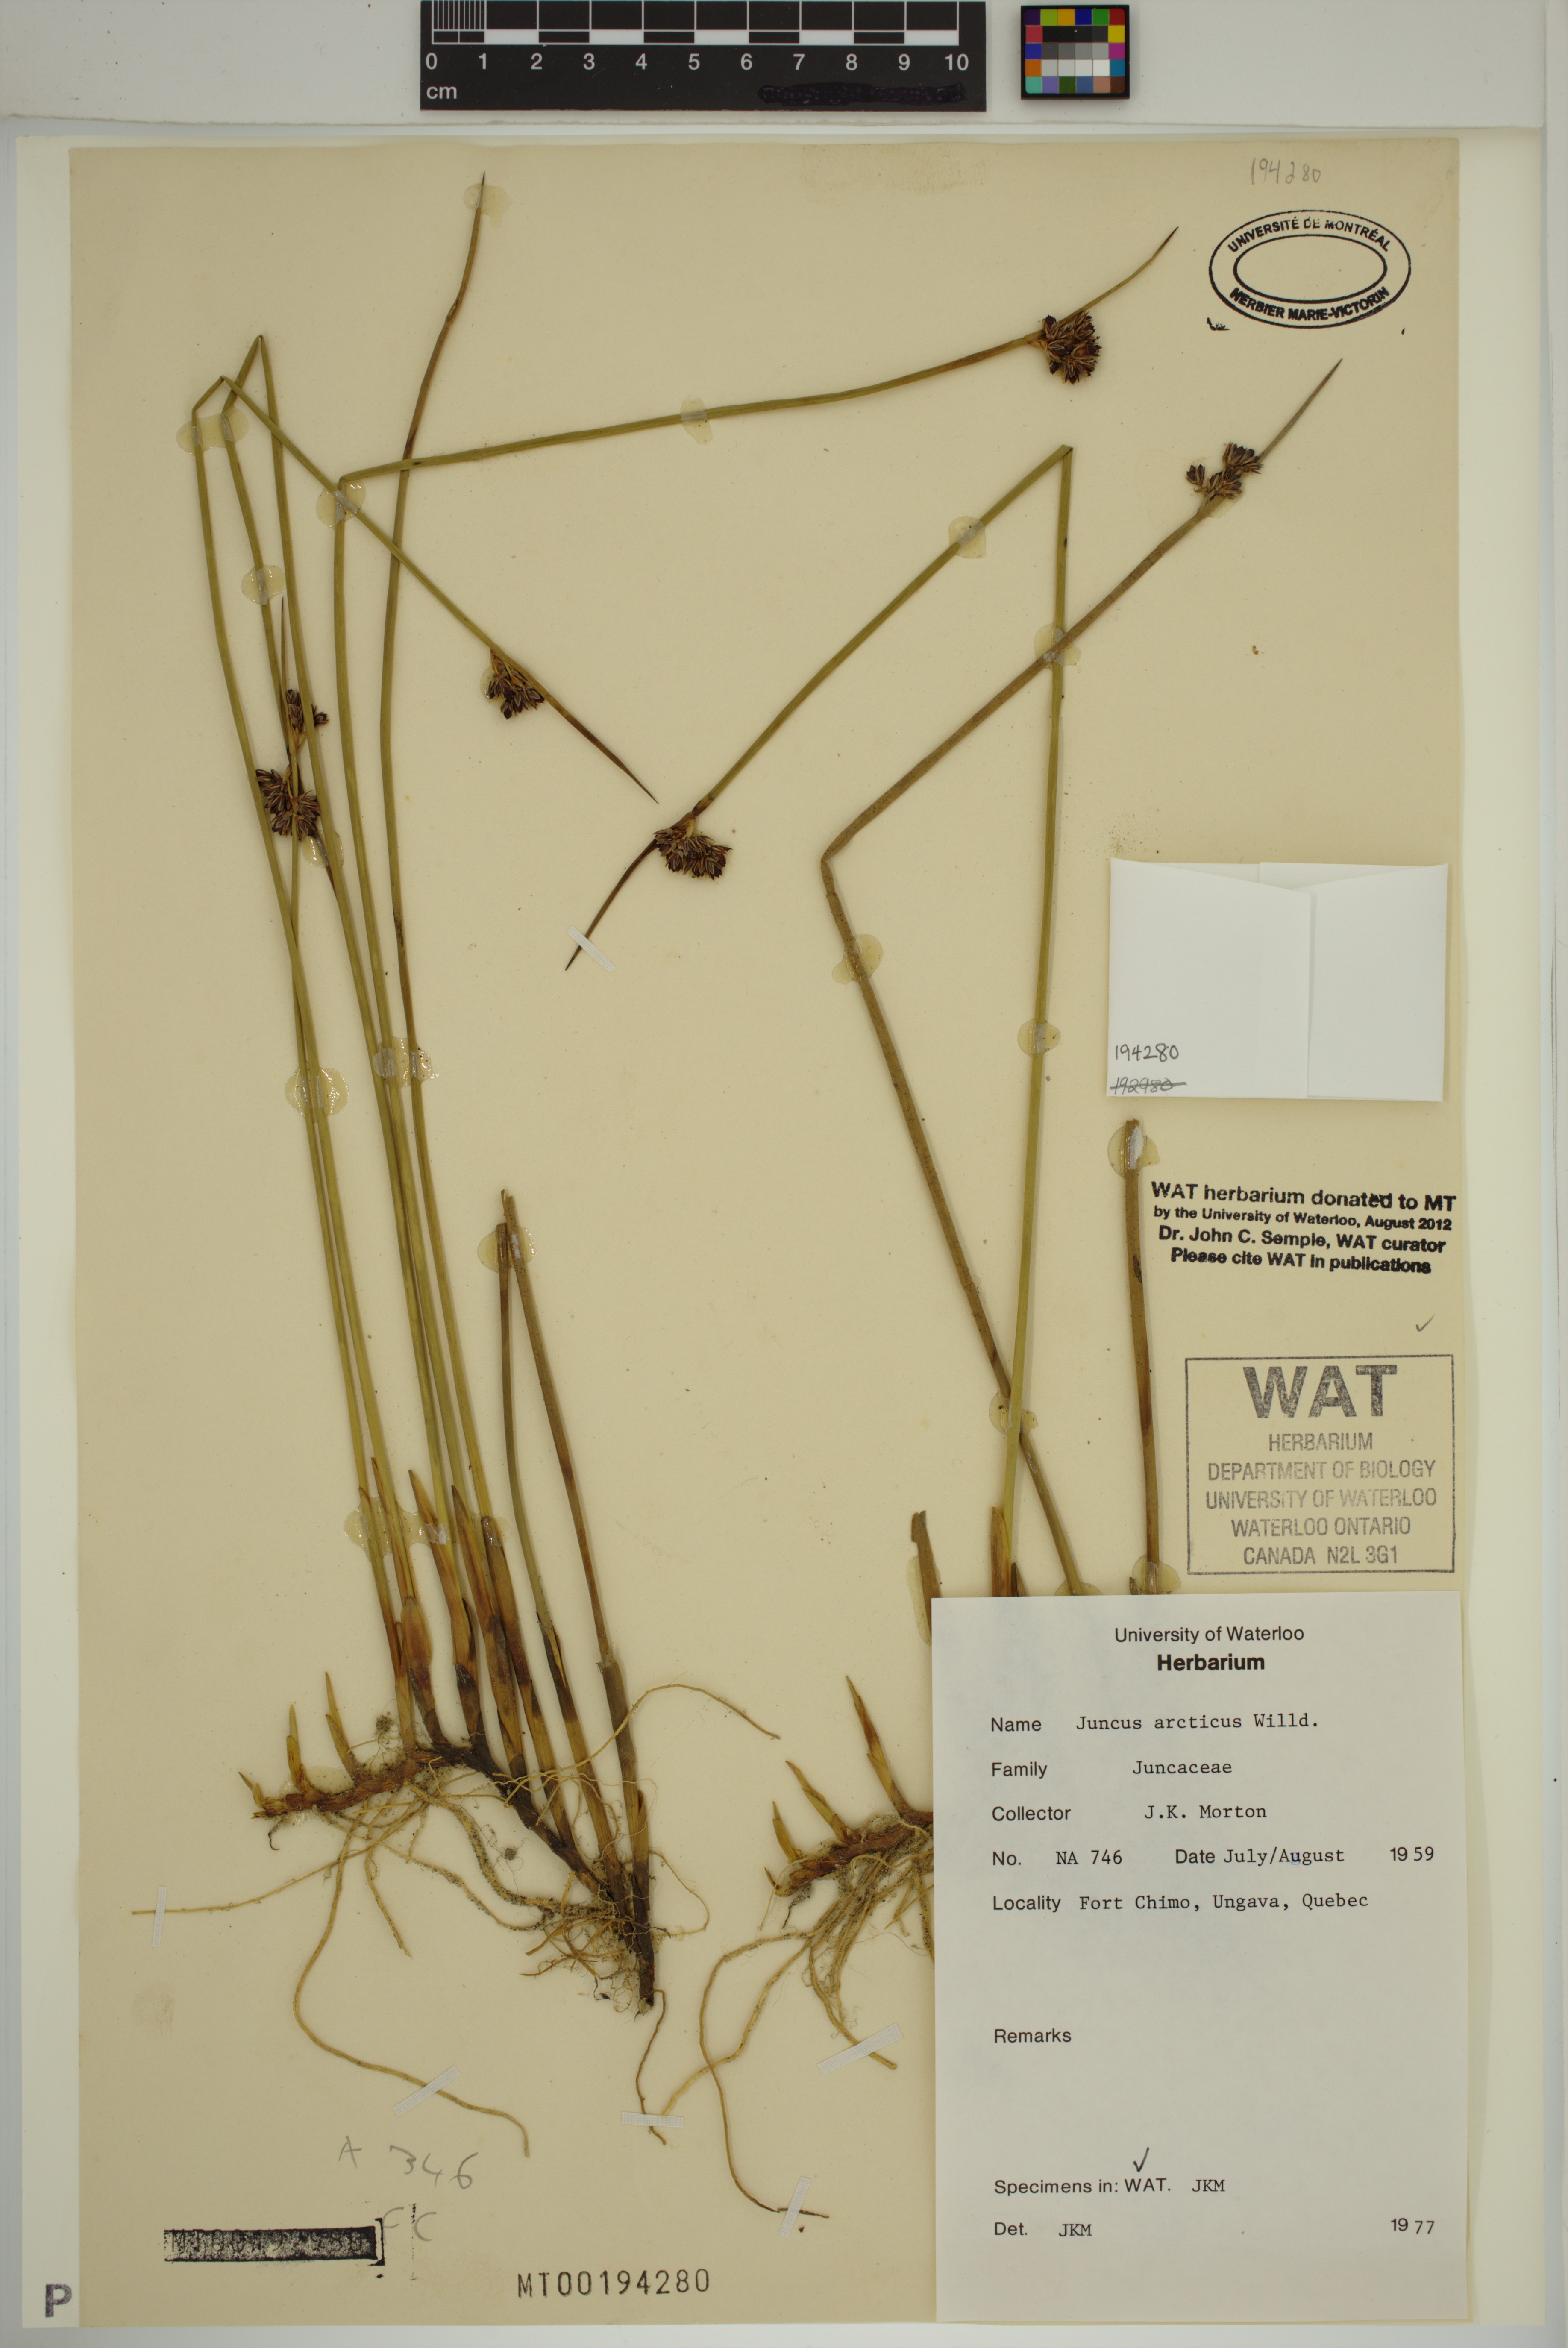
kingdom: Plantae
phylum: Tracheophyta
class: Liliopsida
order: Poales
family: Juncaceae
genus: Juncus
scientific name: Juncus arcticus
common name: Arctic rush
